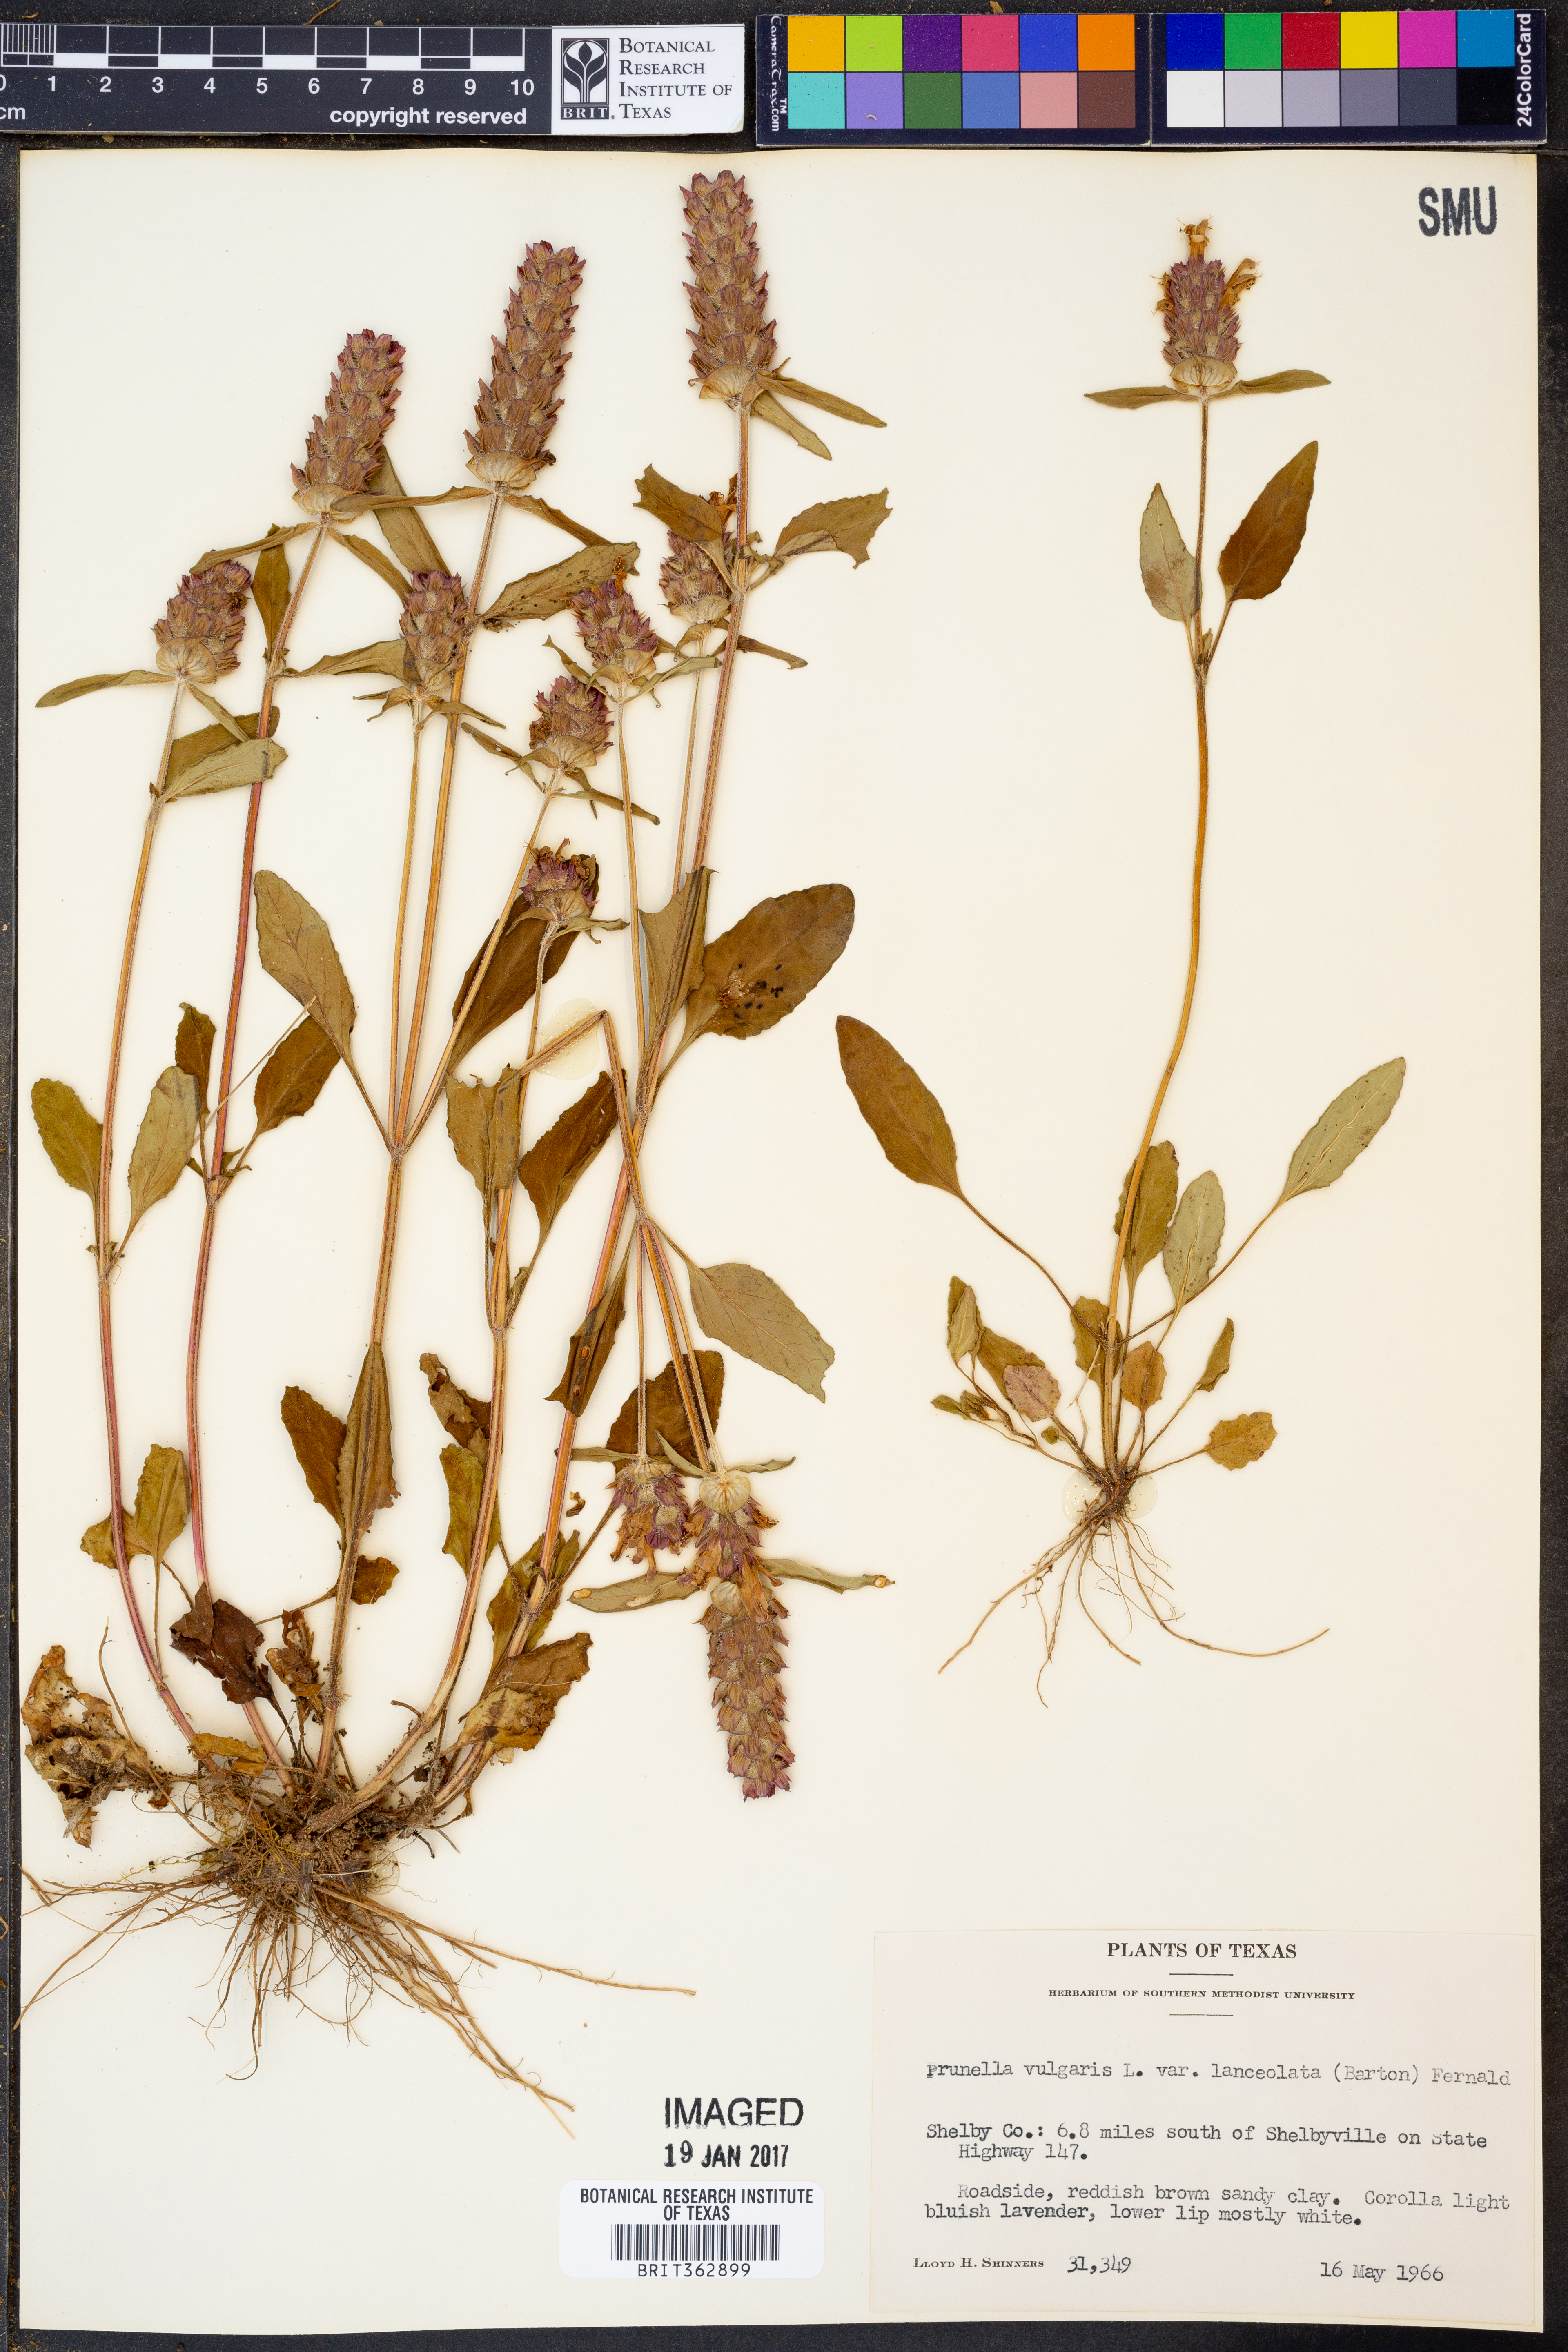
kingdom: Plantae
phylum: Tracheophyta
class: Magnoliopsida
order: Lamiales
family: Lamiaceae
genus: Prunella
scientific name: Prunella vulgaris
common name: Heal-all
